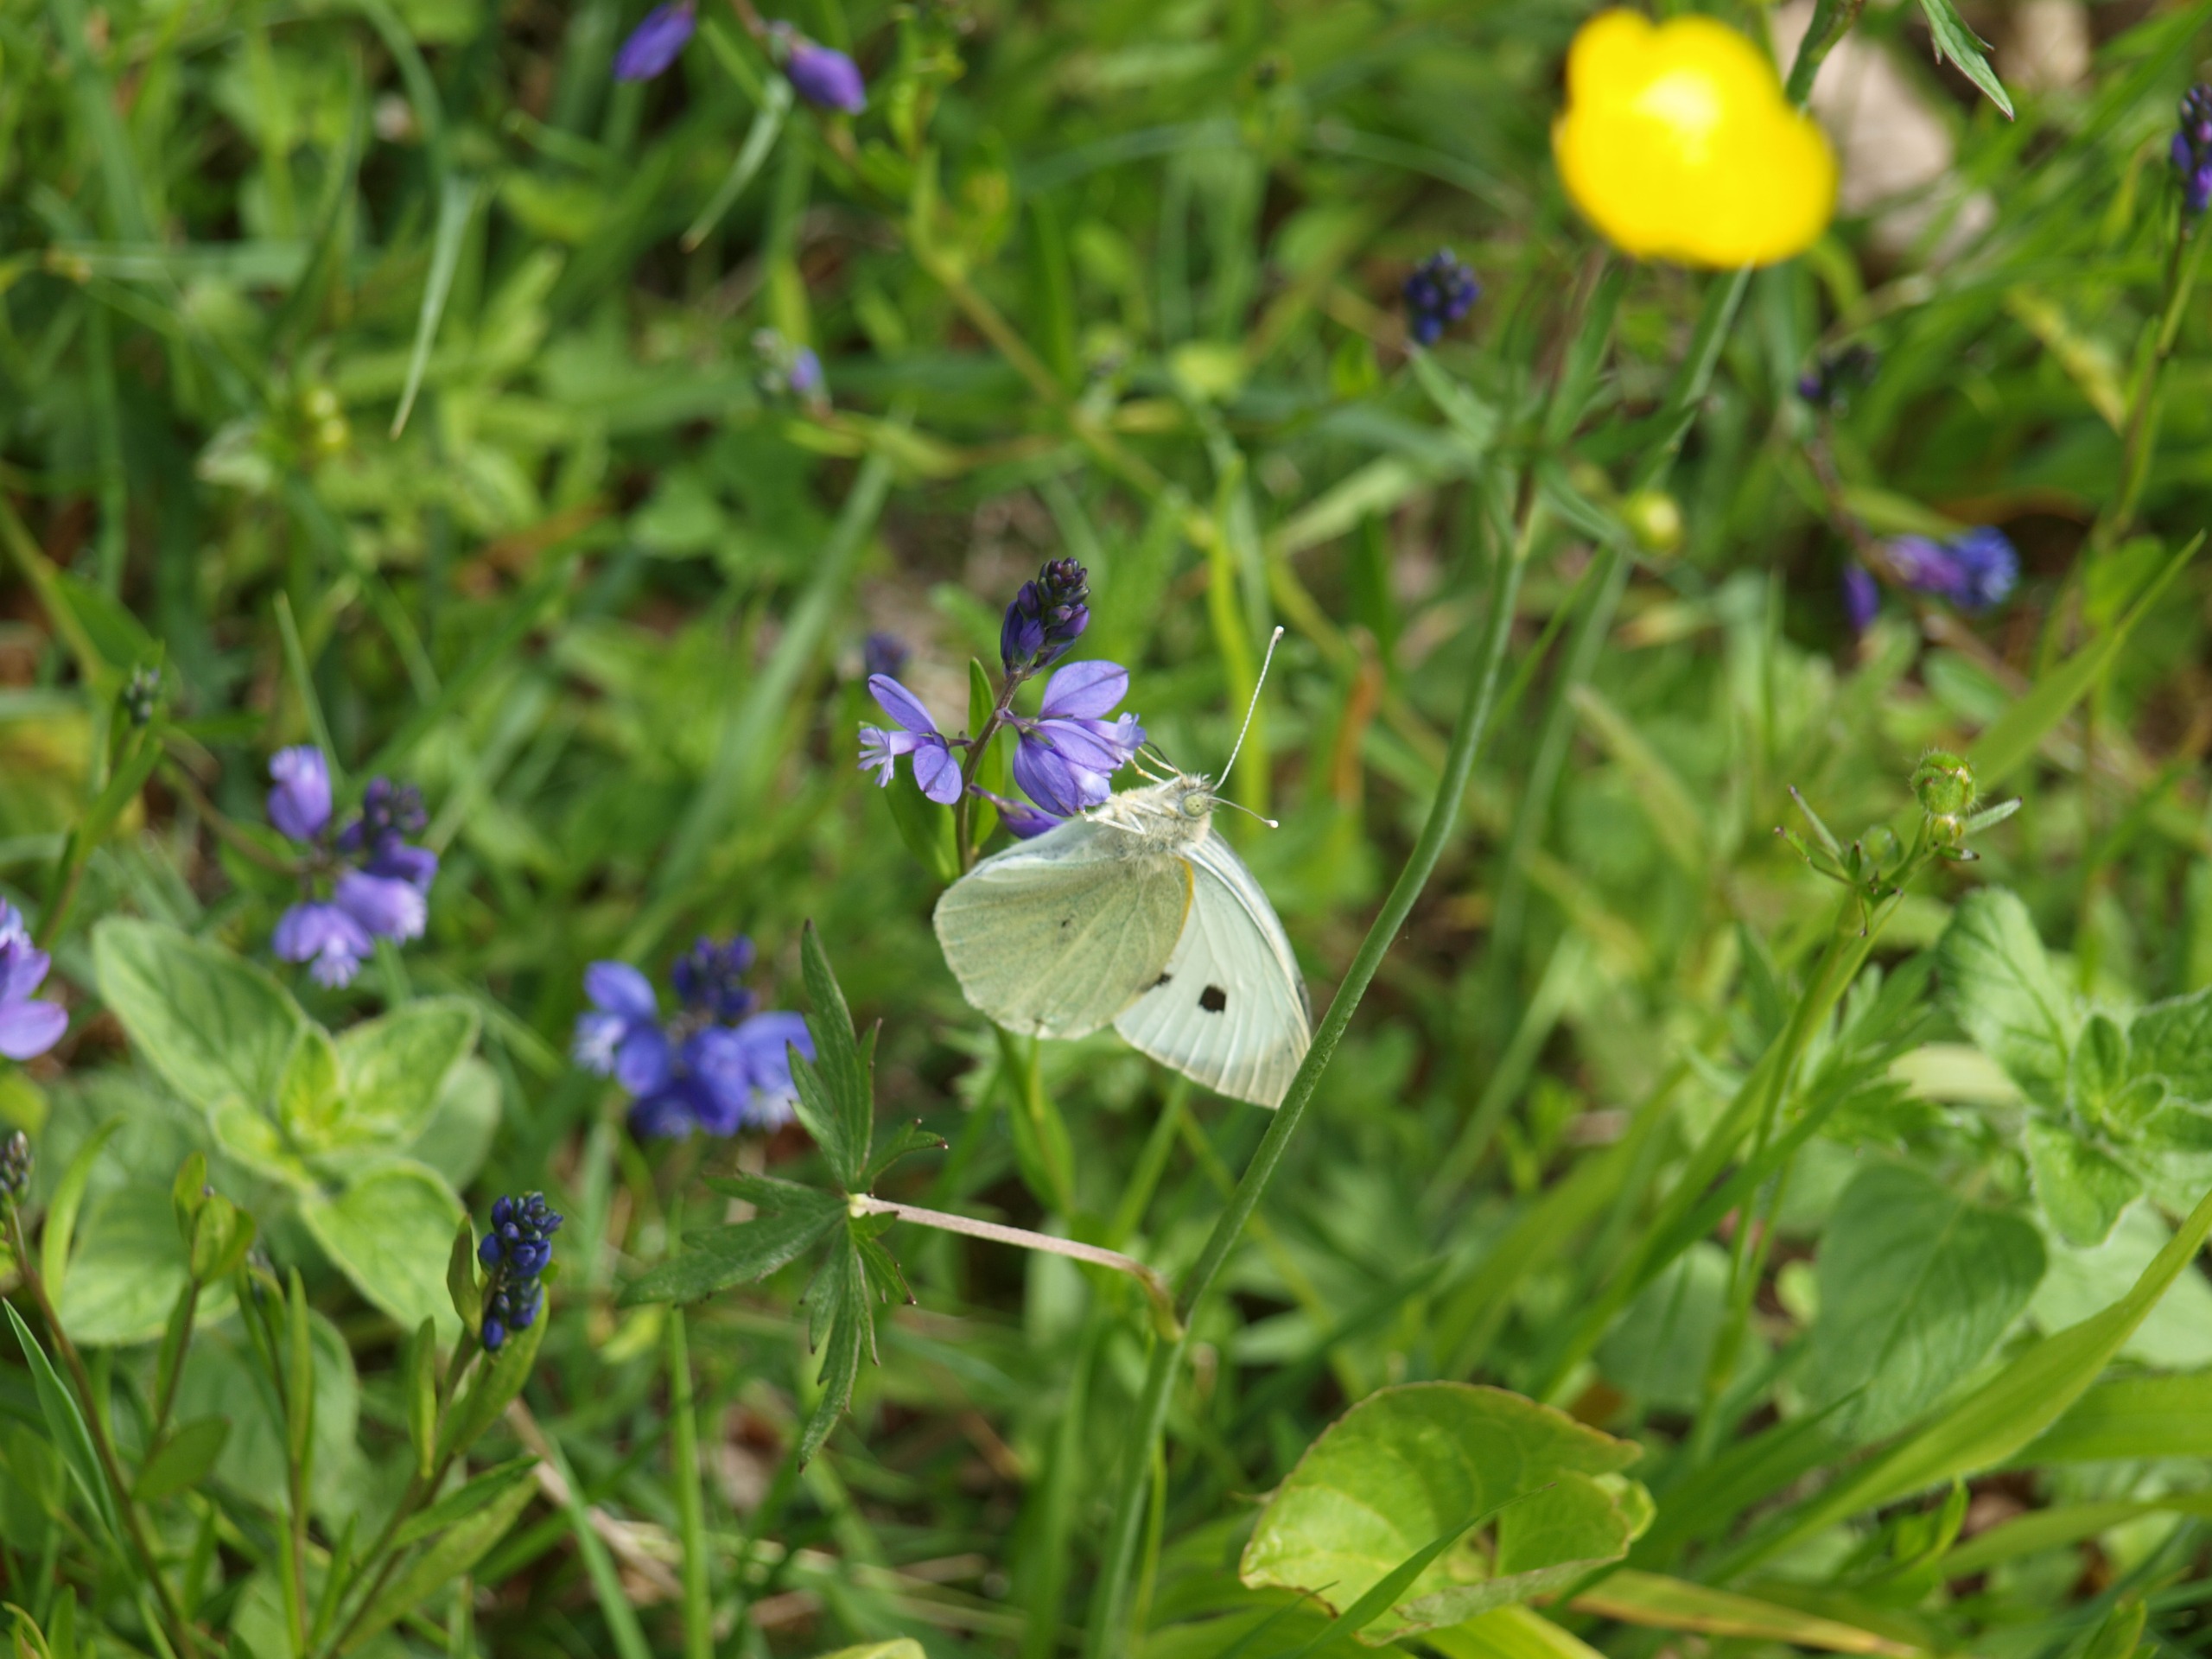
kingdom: Animalia
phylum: Arthropoda
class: Insecta
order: Lepidoptera
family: Pieridae
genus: Pieris
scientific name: Pieris brassicae
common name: Stor kålsommerfugl
